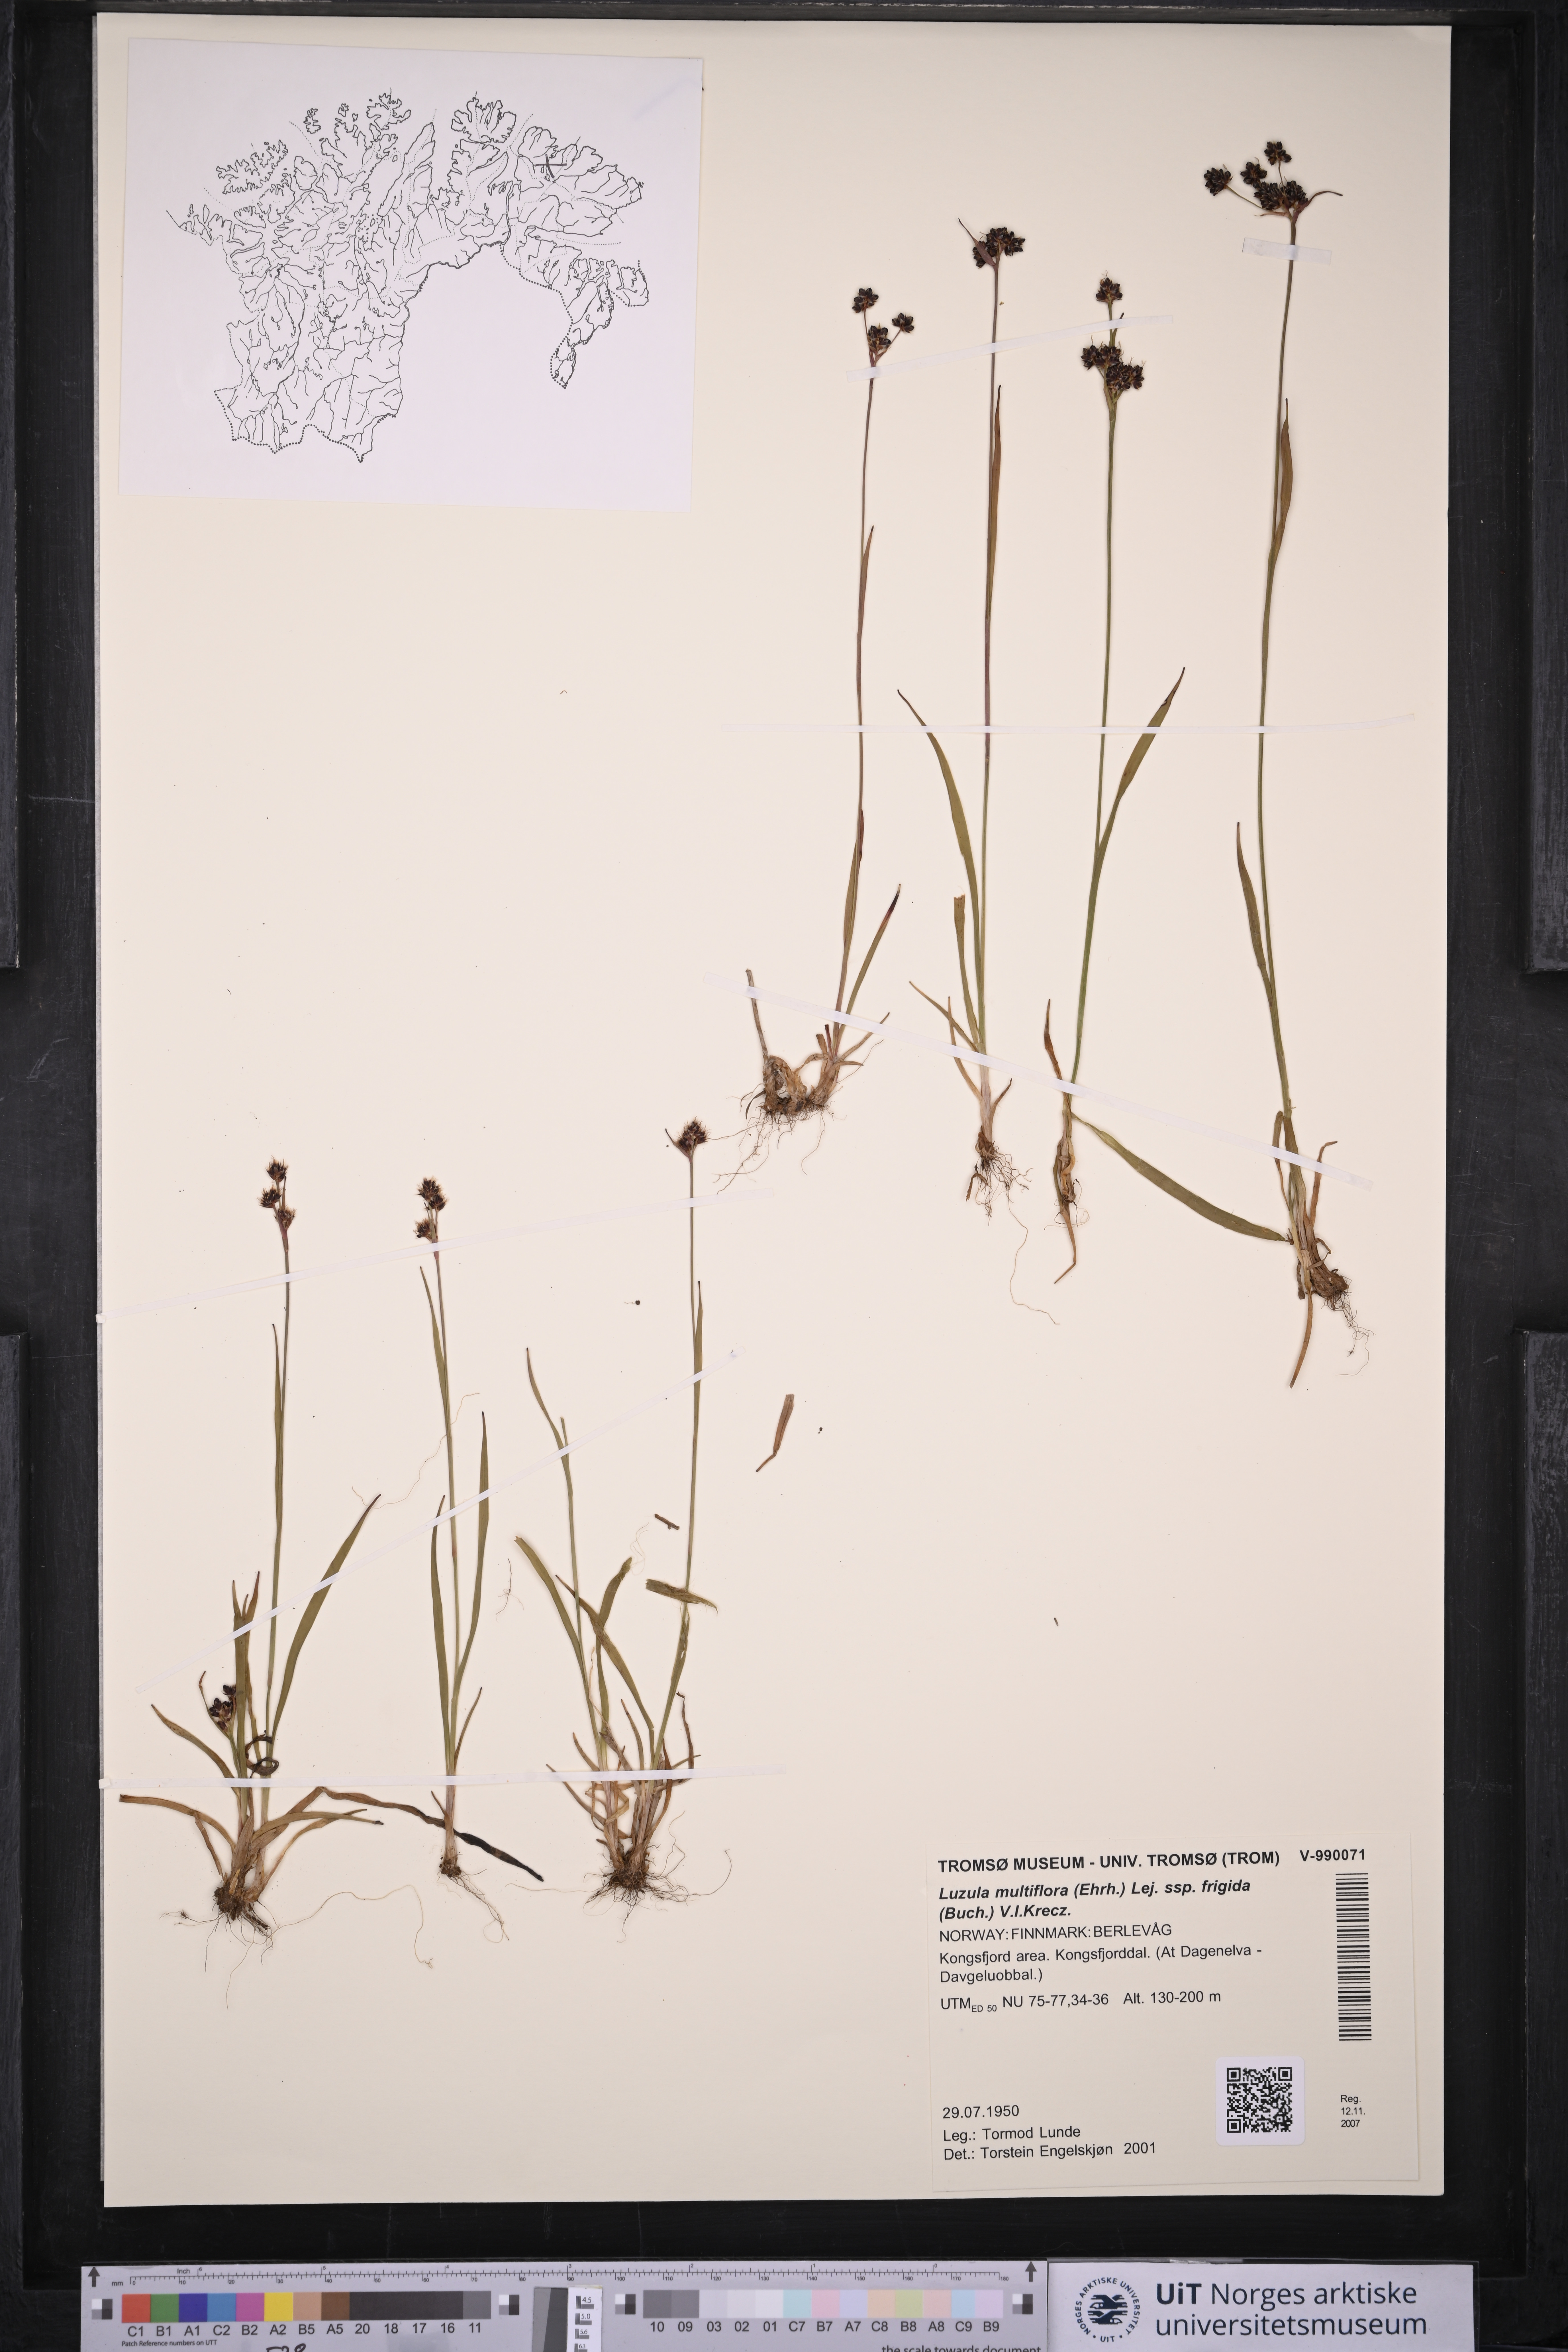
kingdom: Plantae
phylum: Tracheophyta
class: Liliopsida
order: Poales
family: Juncaceae
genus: Luzula
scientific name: Luzula multiflora
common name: Heath wood-rush
